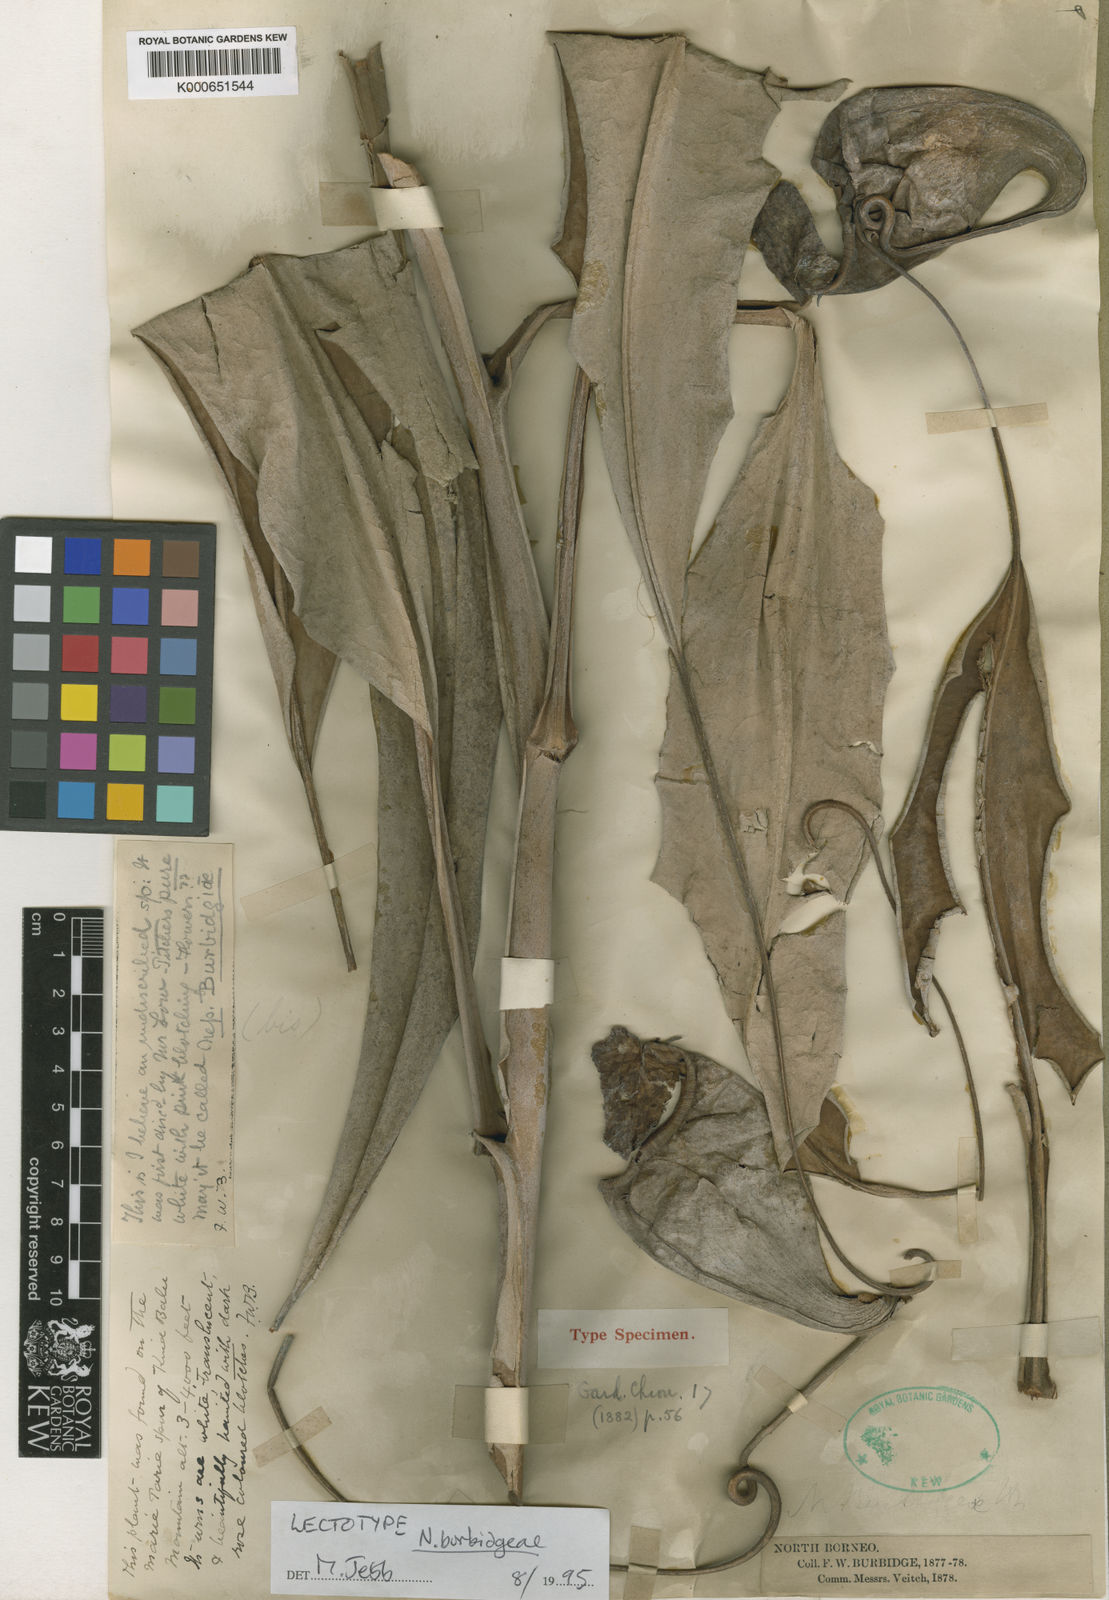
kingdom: Plantae
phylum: Tracheophyta
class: Magnoliopsida
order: Caryophyllales
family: Nepenthaceae
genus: Nepenthes
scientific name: Nepenthes
